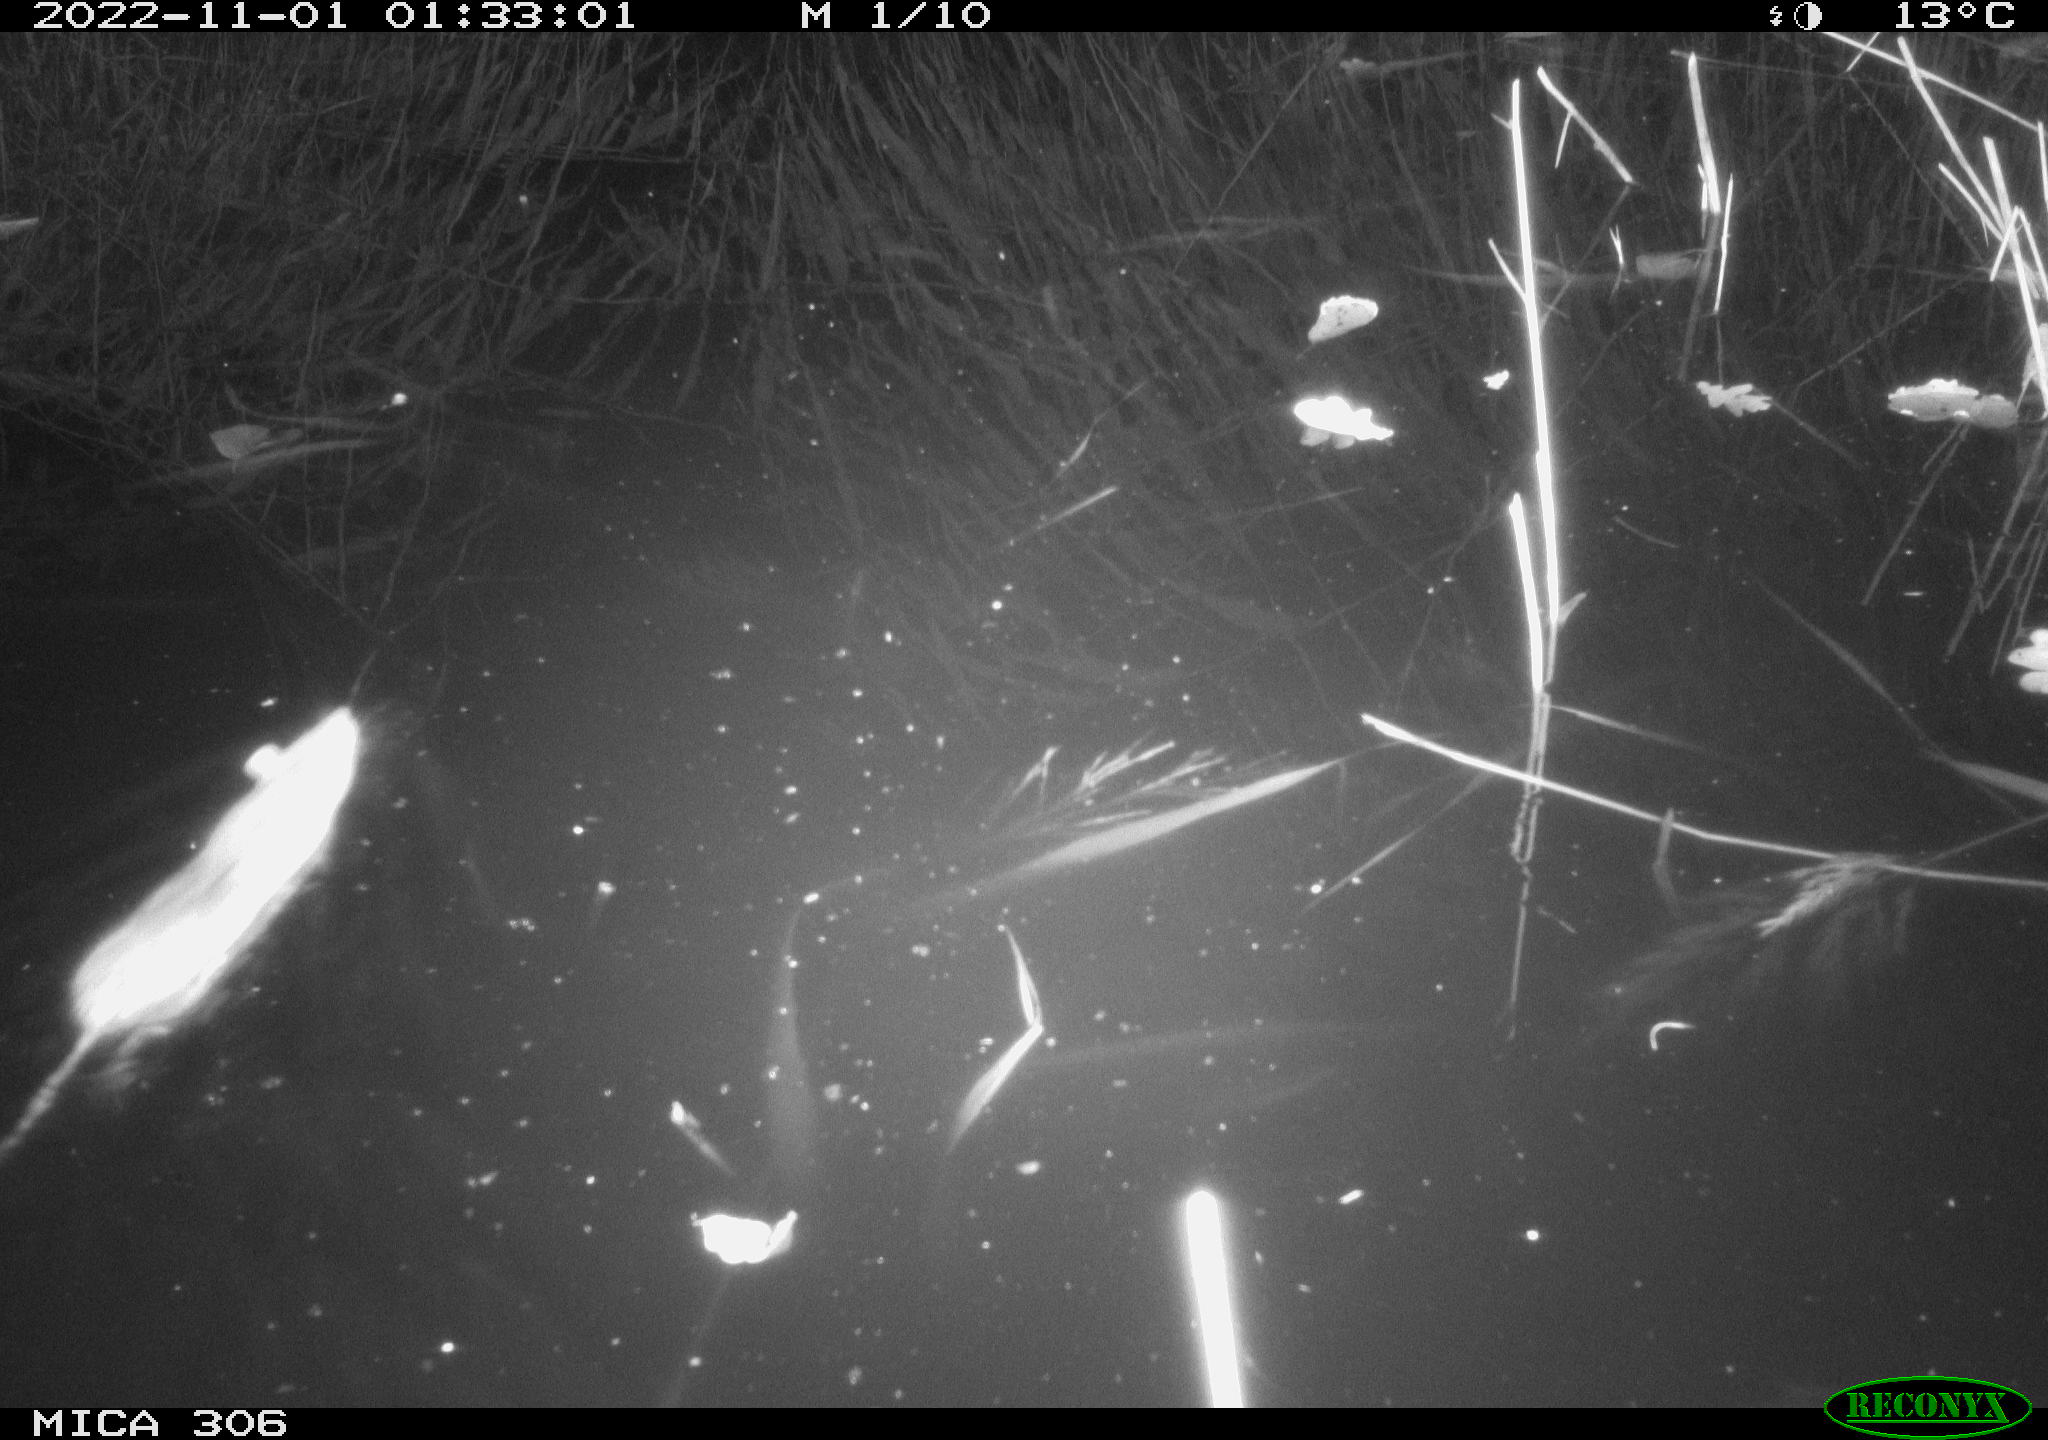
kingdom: Animalia
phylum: Chordata
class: Mammalia
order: Rodentia
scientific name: Rodentia
